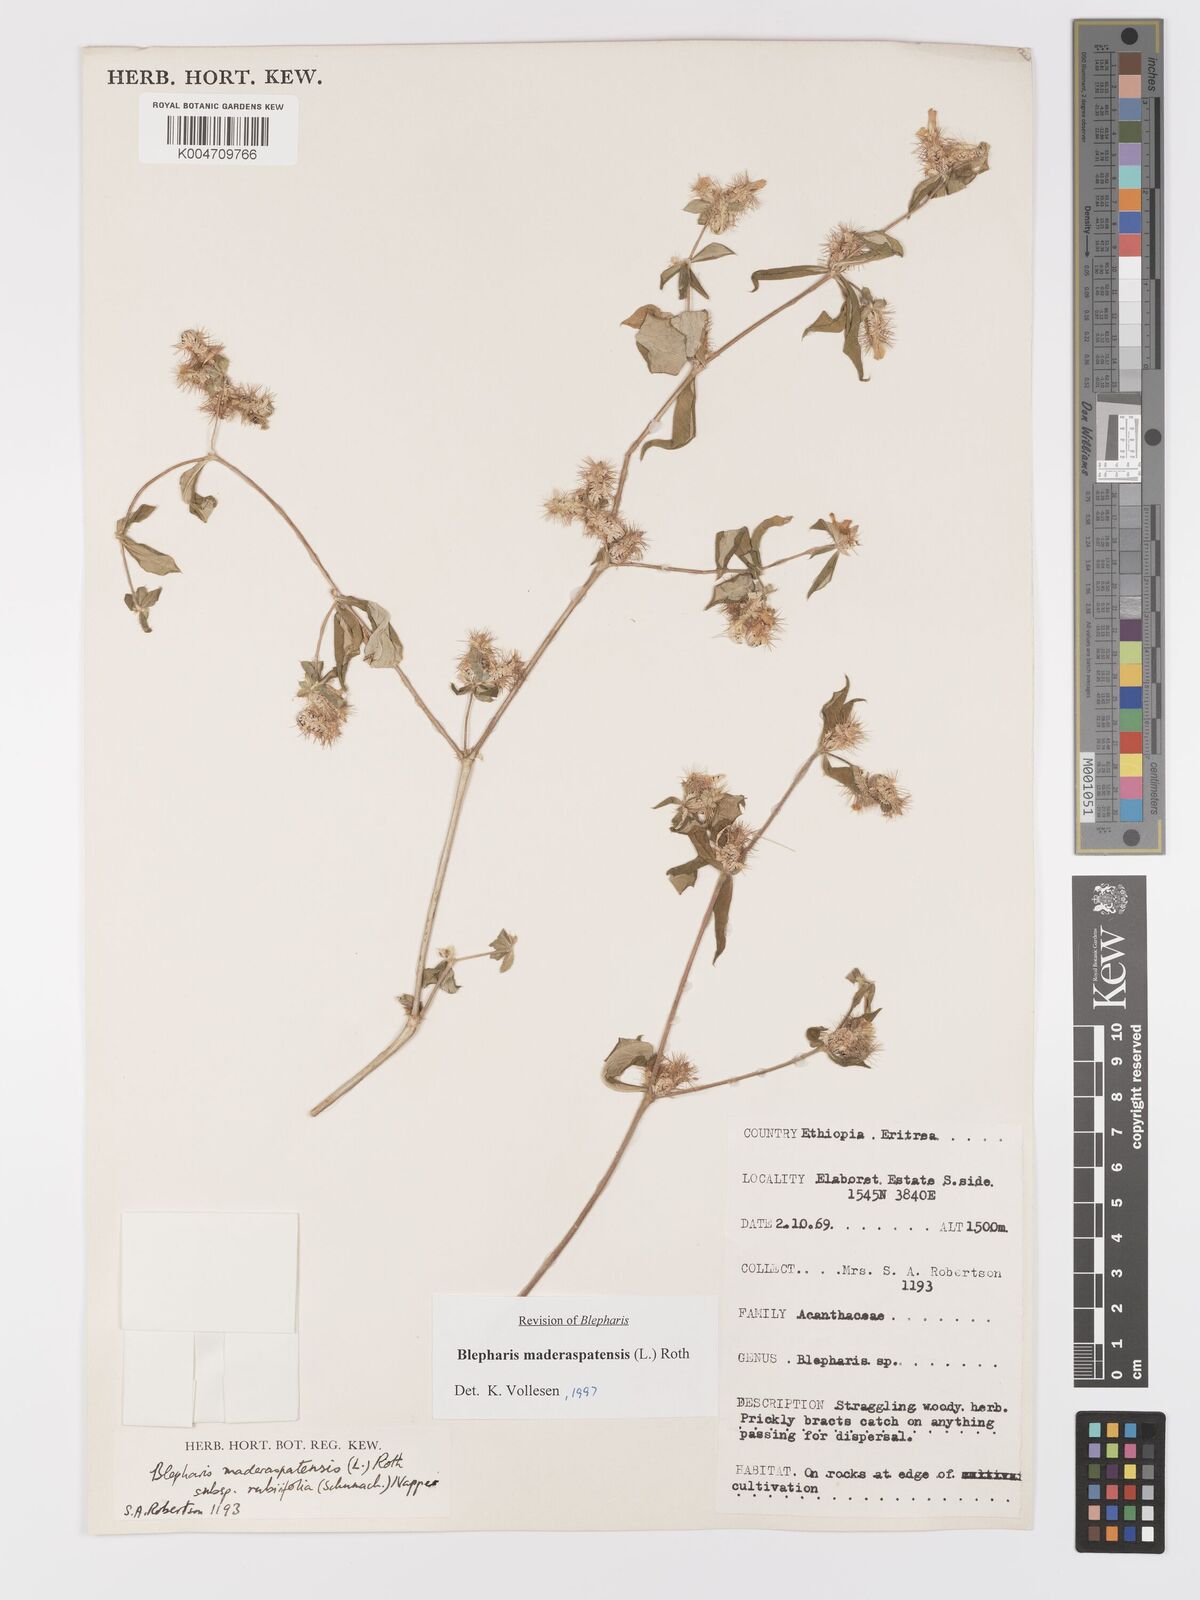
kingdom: Plantae
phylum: Tracheophyta
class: Magnoliopsida
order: Lamiales
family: Acanthaceae
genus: Blepharis
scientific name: Blepharis maderaspatensis
